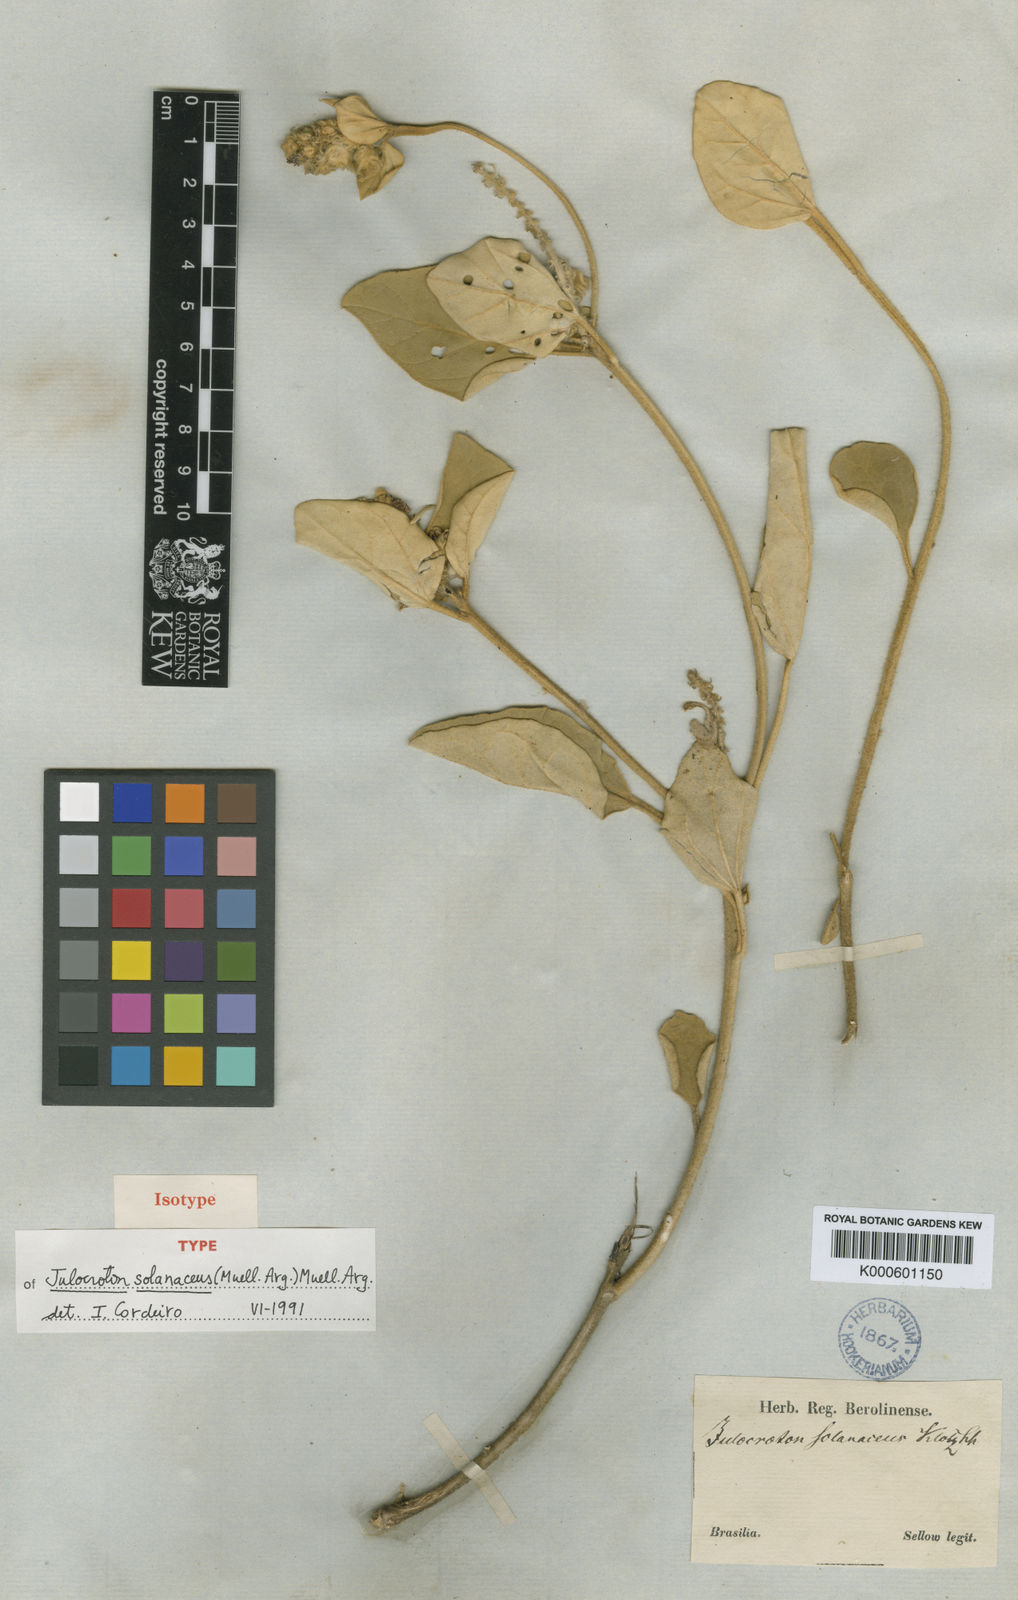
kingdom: Plantae
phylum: Tracheophyta
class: Magnoliopsida
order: Malpighiales
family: Euphorbiaceae
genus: Croton
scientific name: Croton
